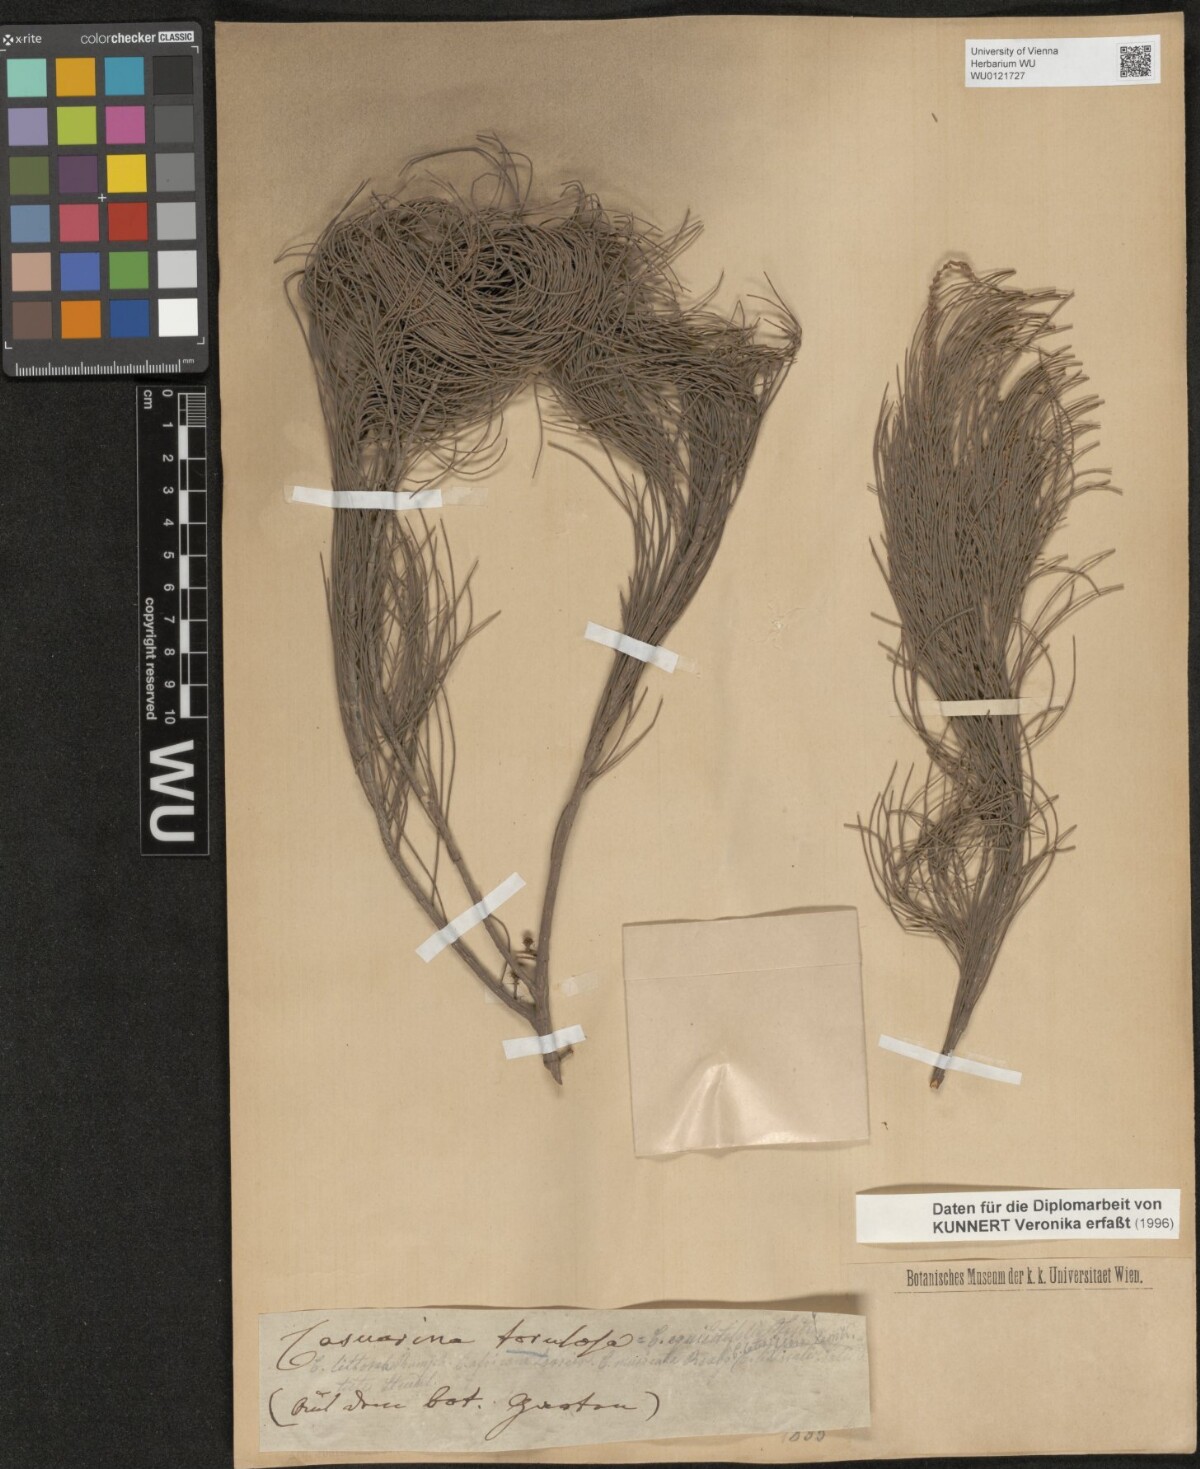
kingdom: Plantae
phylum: Tracheophyta
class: Magnoliopsida
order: Fagales
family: Casuarinaceae
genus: Allocasuarina
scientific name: Allocasuarina torulosa
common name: Forest-oak
